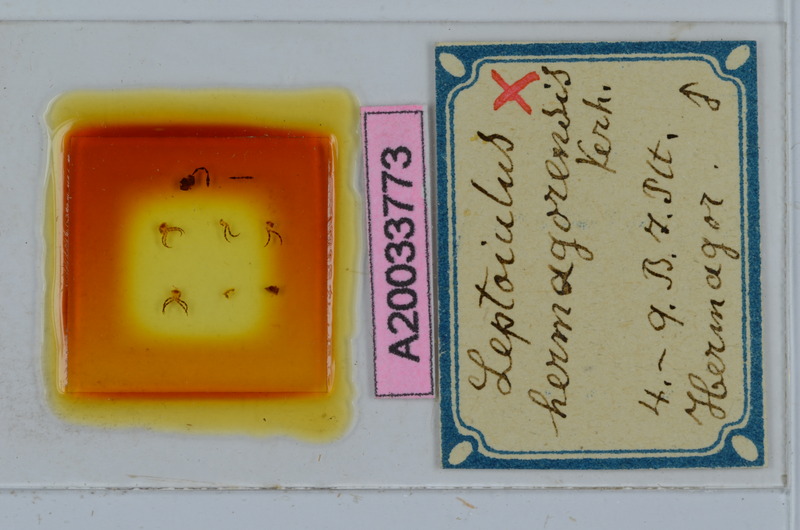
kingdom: Animalia
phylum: Arthropoda
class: Diplopoda
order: Julida
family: Julidae
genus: Leptoiulus
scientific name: Leptoiulus vagabundus
